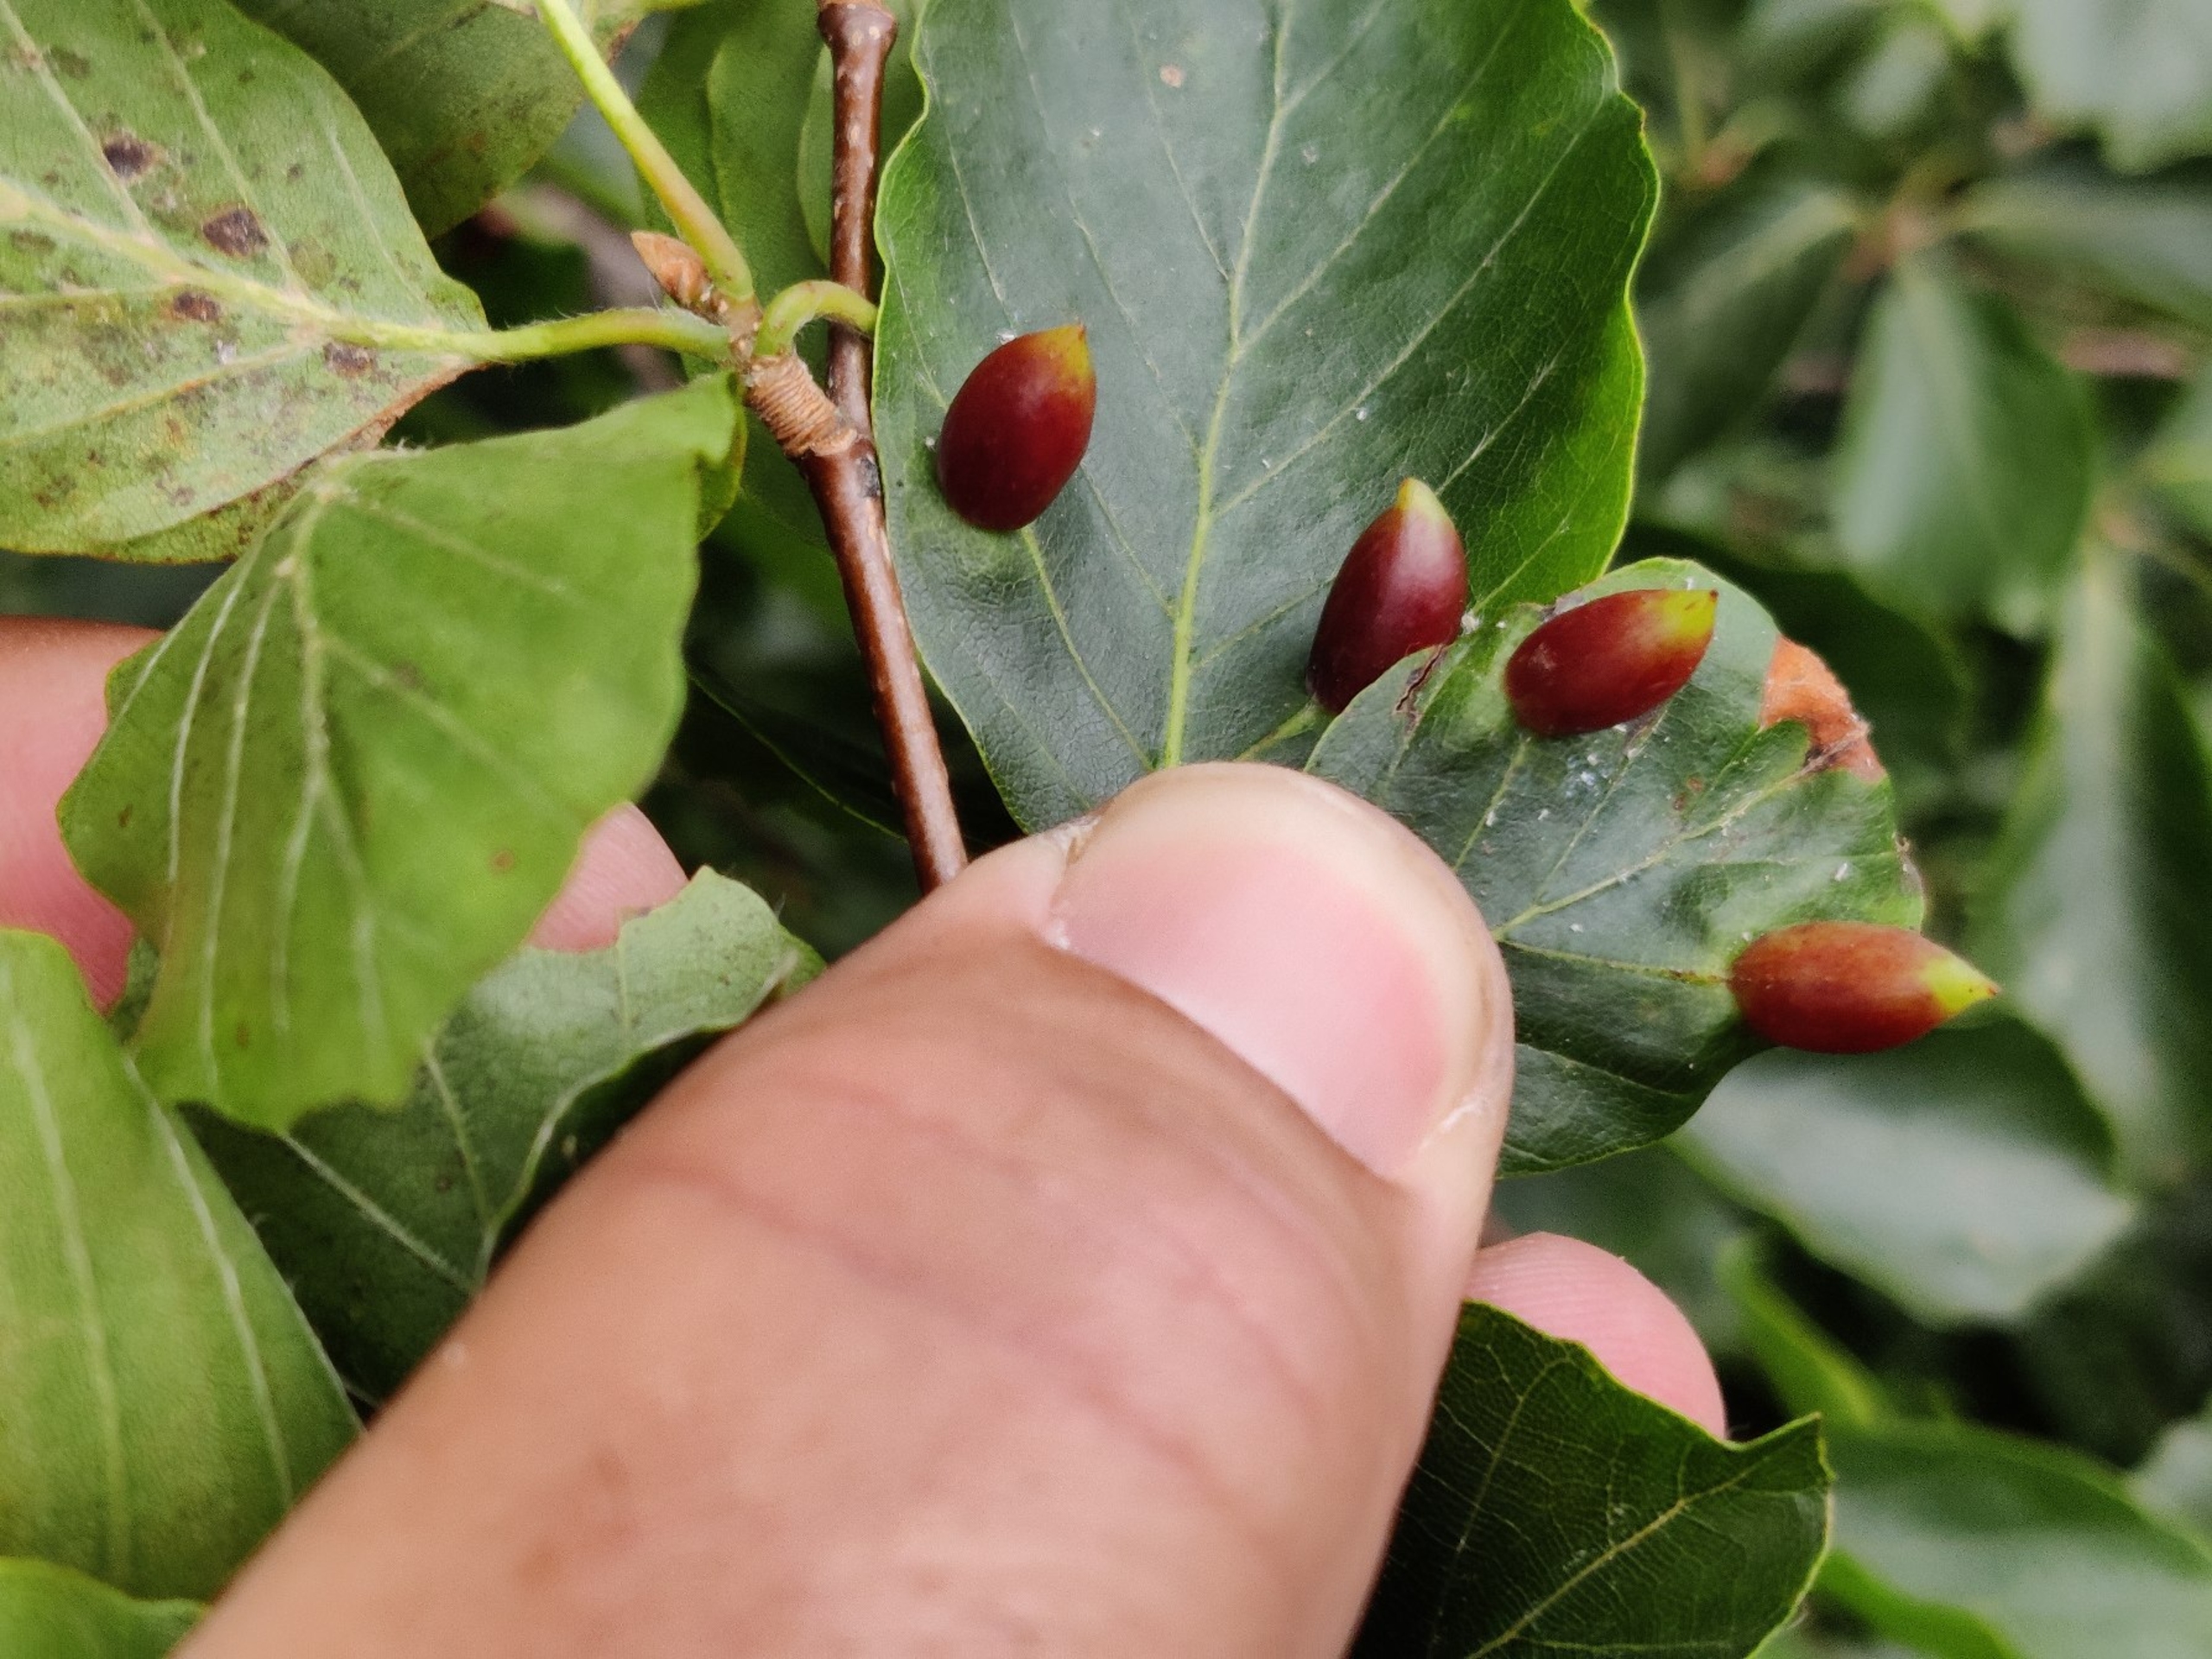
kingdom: Animalia
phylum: Arthropoda
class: Insecta
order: Diptera
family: Cecidomyiidae
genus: Mikiola
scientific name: Mikiola fagi
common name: Bøgegalmyg
